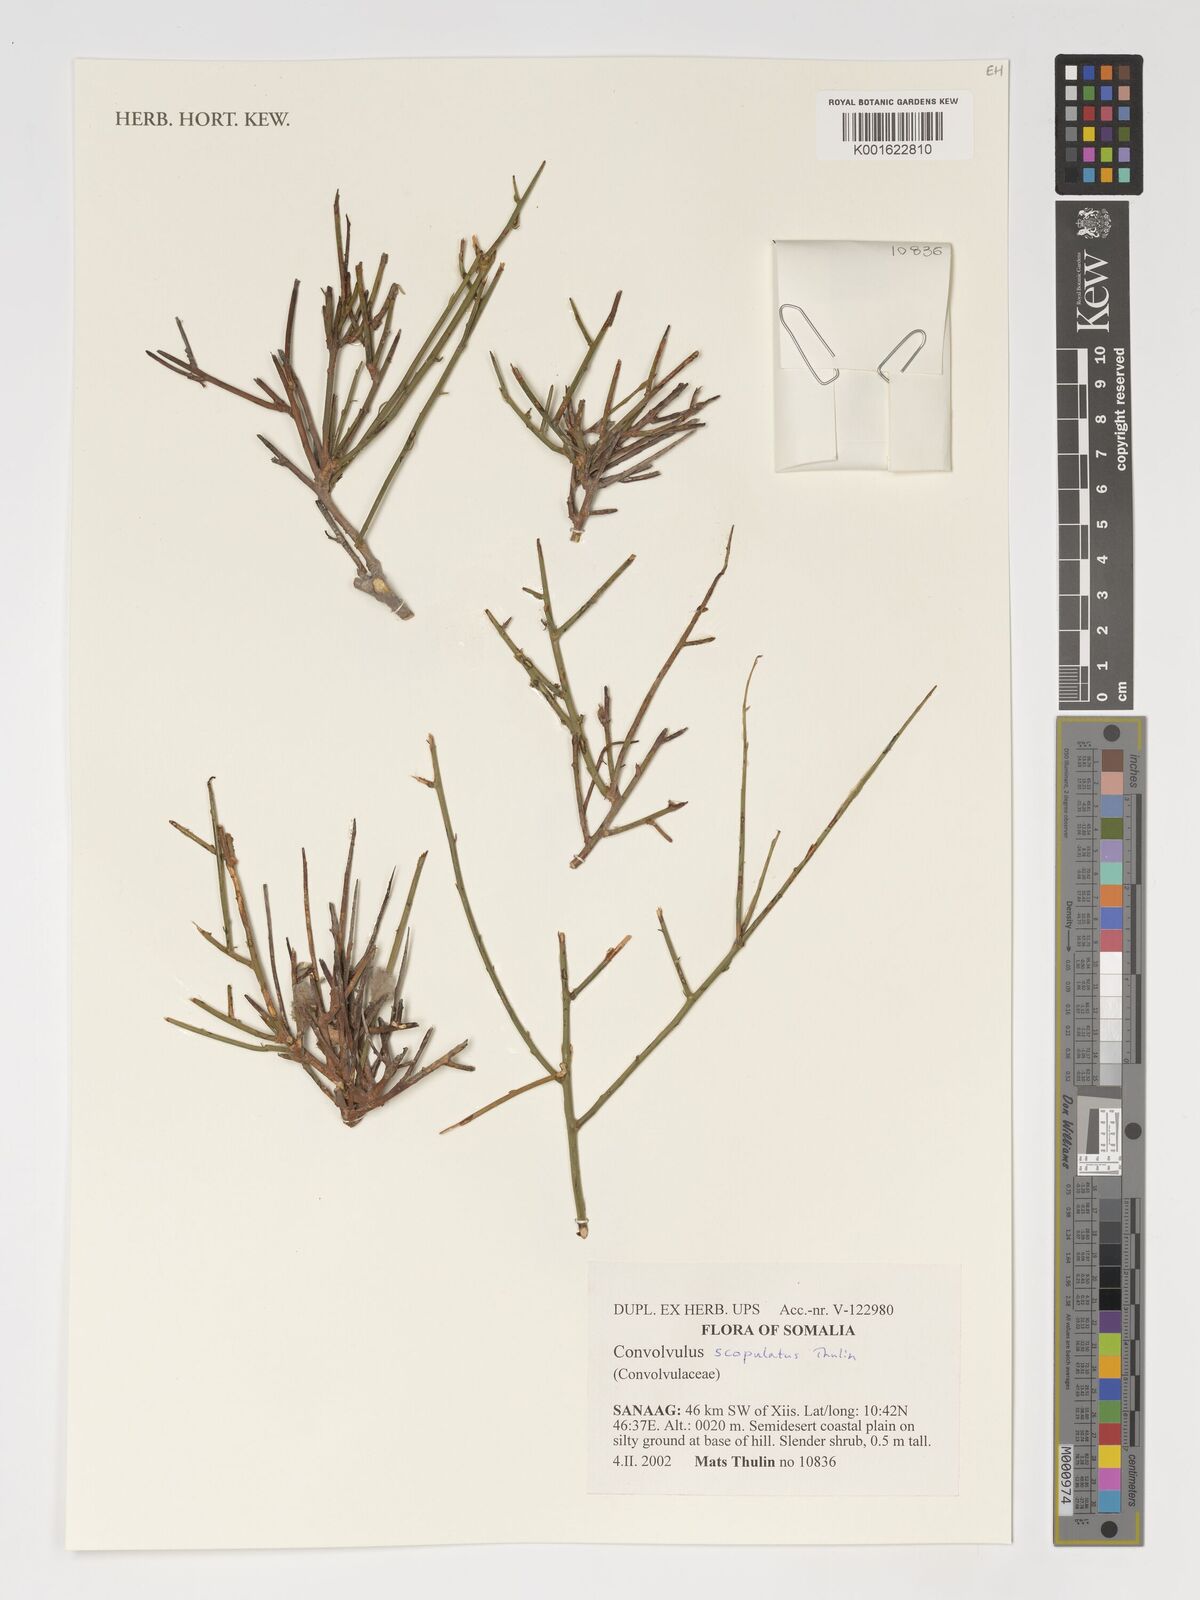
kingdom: Plantae
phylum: Tracheophyta
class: Magnoliopsida
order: Solanales
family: Convolvulaceae
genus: Convolvulus
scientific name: Convolvulus scopulatus
